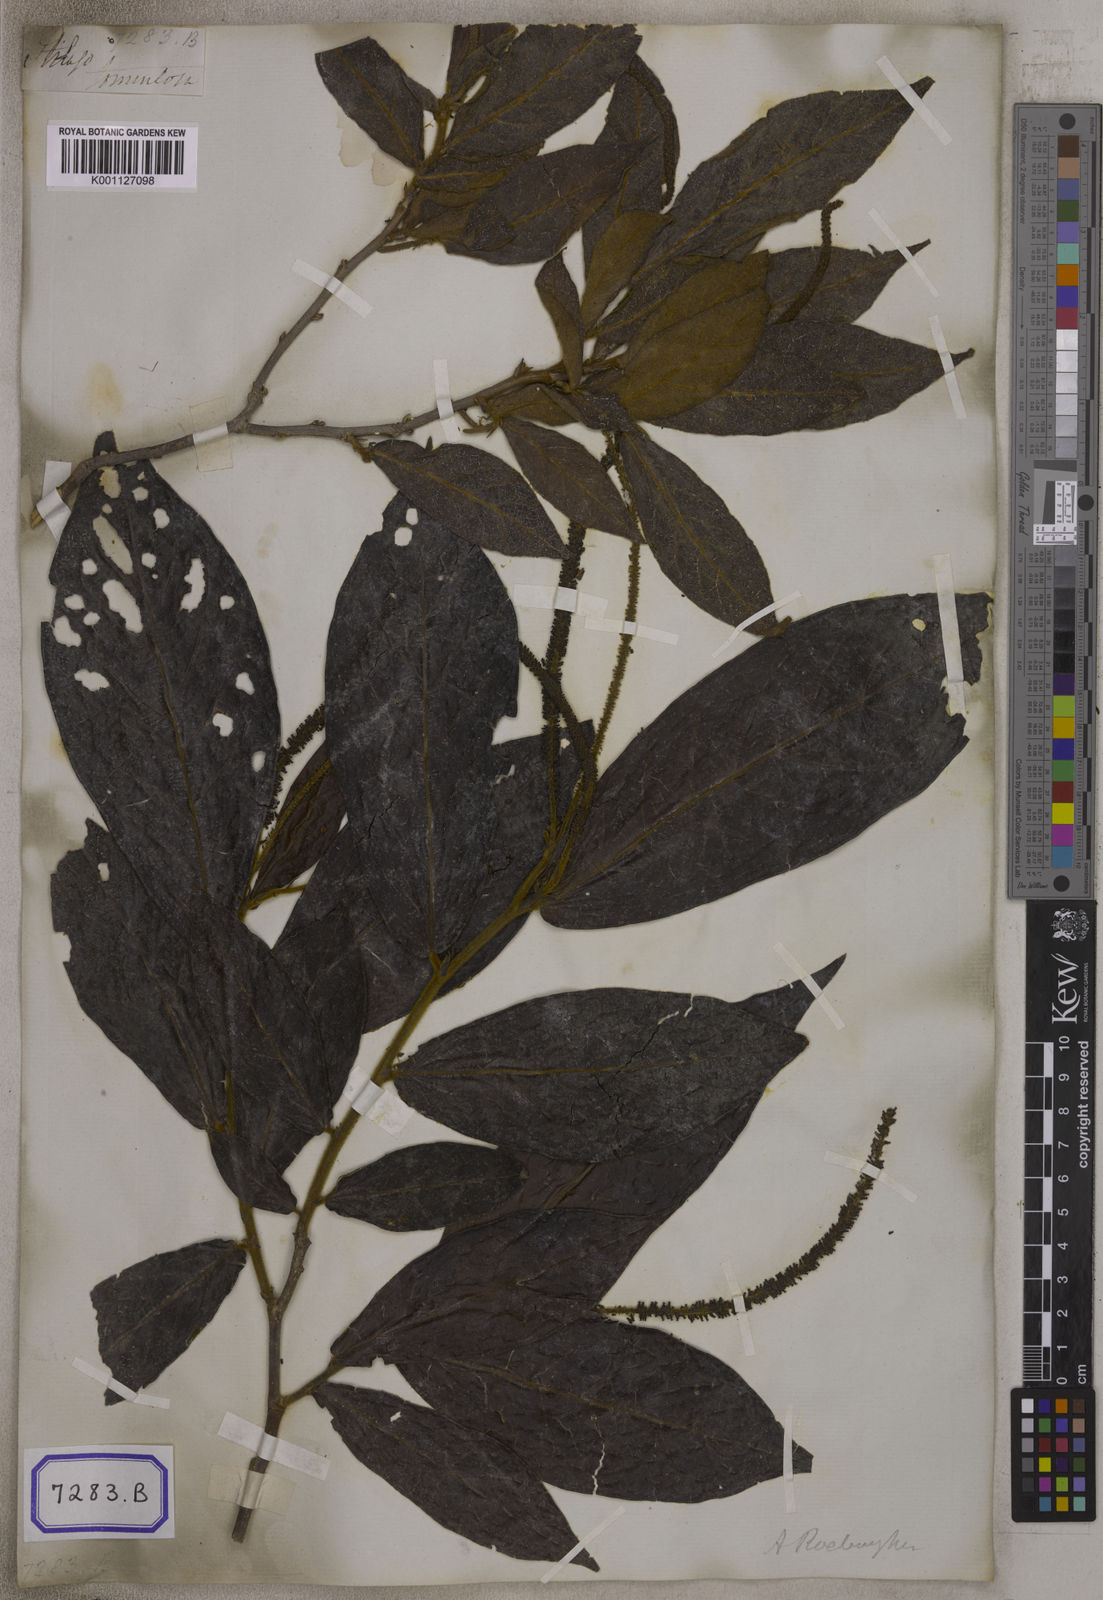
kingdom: Plantae
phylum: Tracheophyta
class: Magnoliopsida
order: Malpighiales
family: Phyllanthaceae
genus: Antidesma
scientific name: Antidesma
